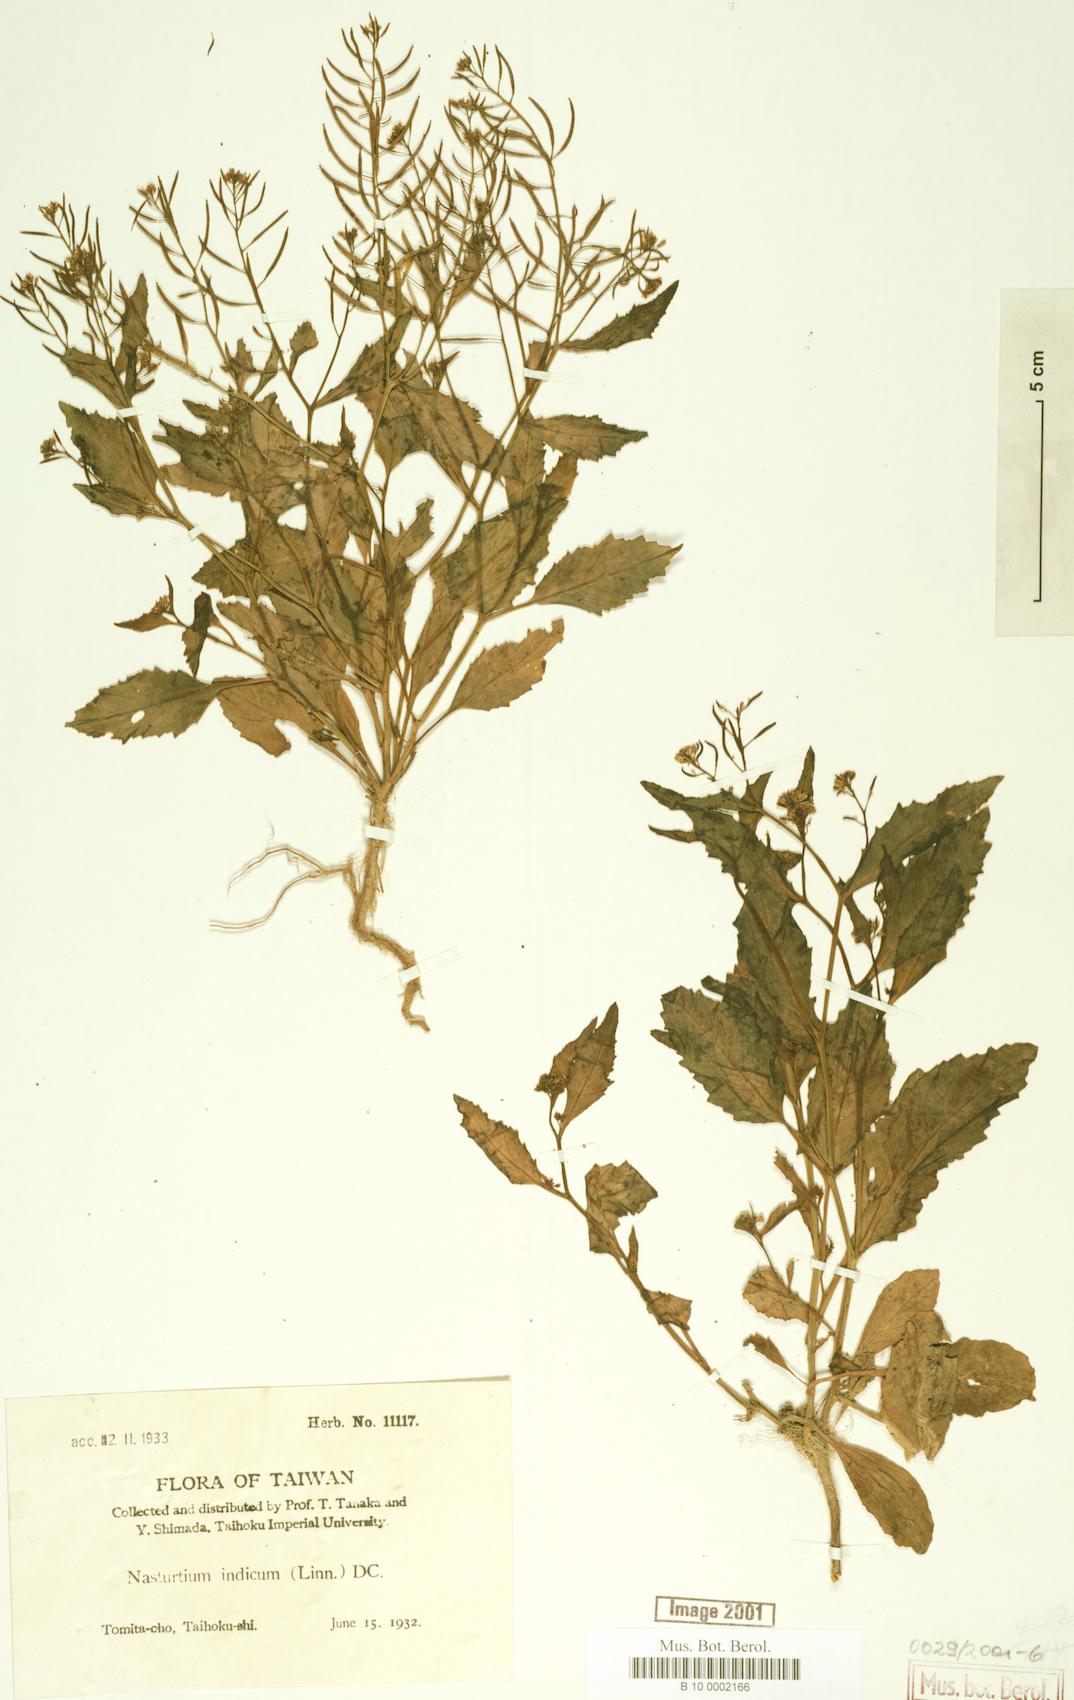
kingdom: Plantae
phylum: Tracheophyta
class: Magnoliopsida
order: Brassicales
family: Brassicaceae
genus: Rorippa
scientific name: Rorippa indica
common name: Variableleaf yellowcress
